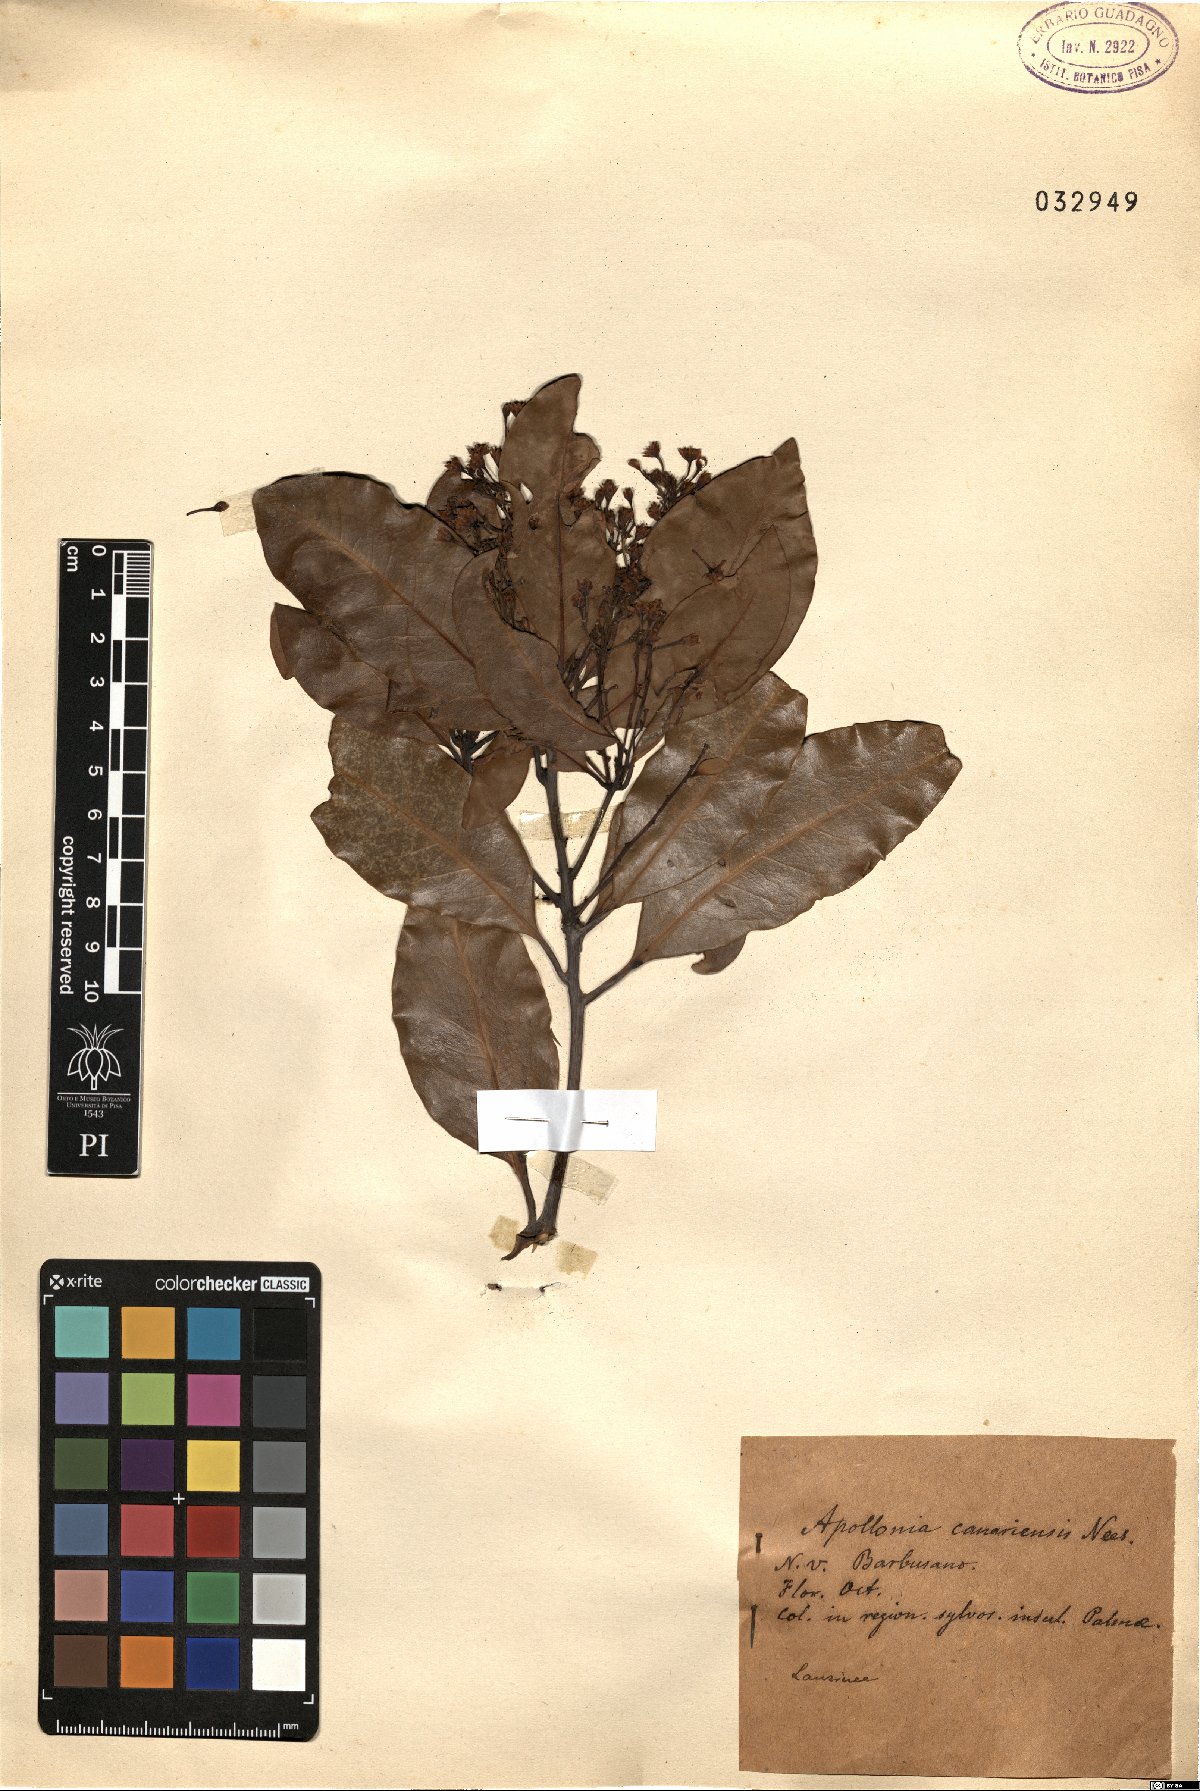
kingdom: Plantae
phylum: Tracheophyta
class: Magnoliopsida
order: Laurales
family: Lauraceae
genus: Apollonias
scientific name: Apollonias barbujana
